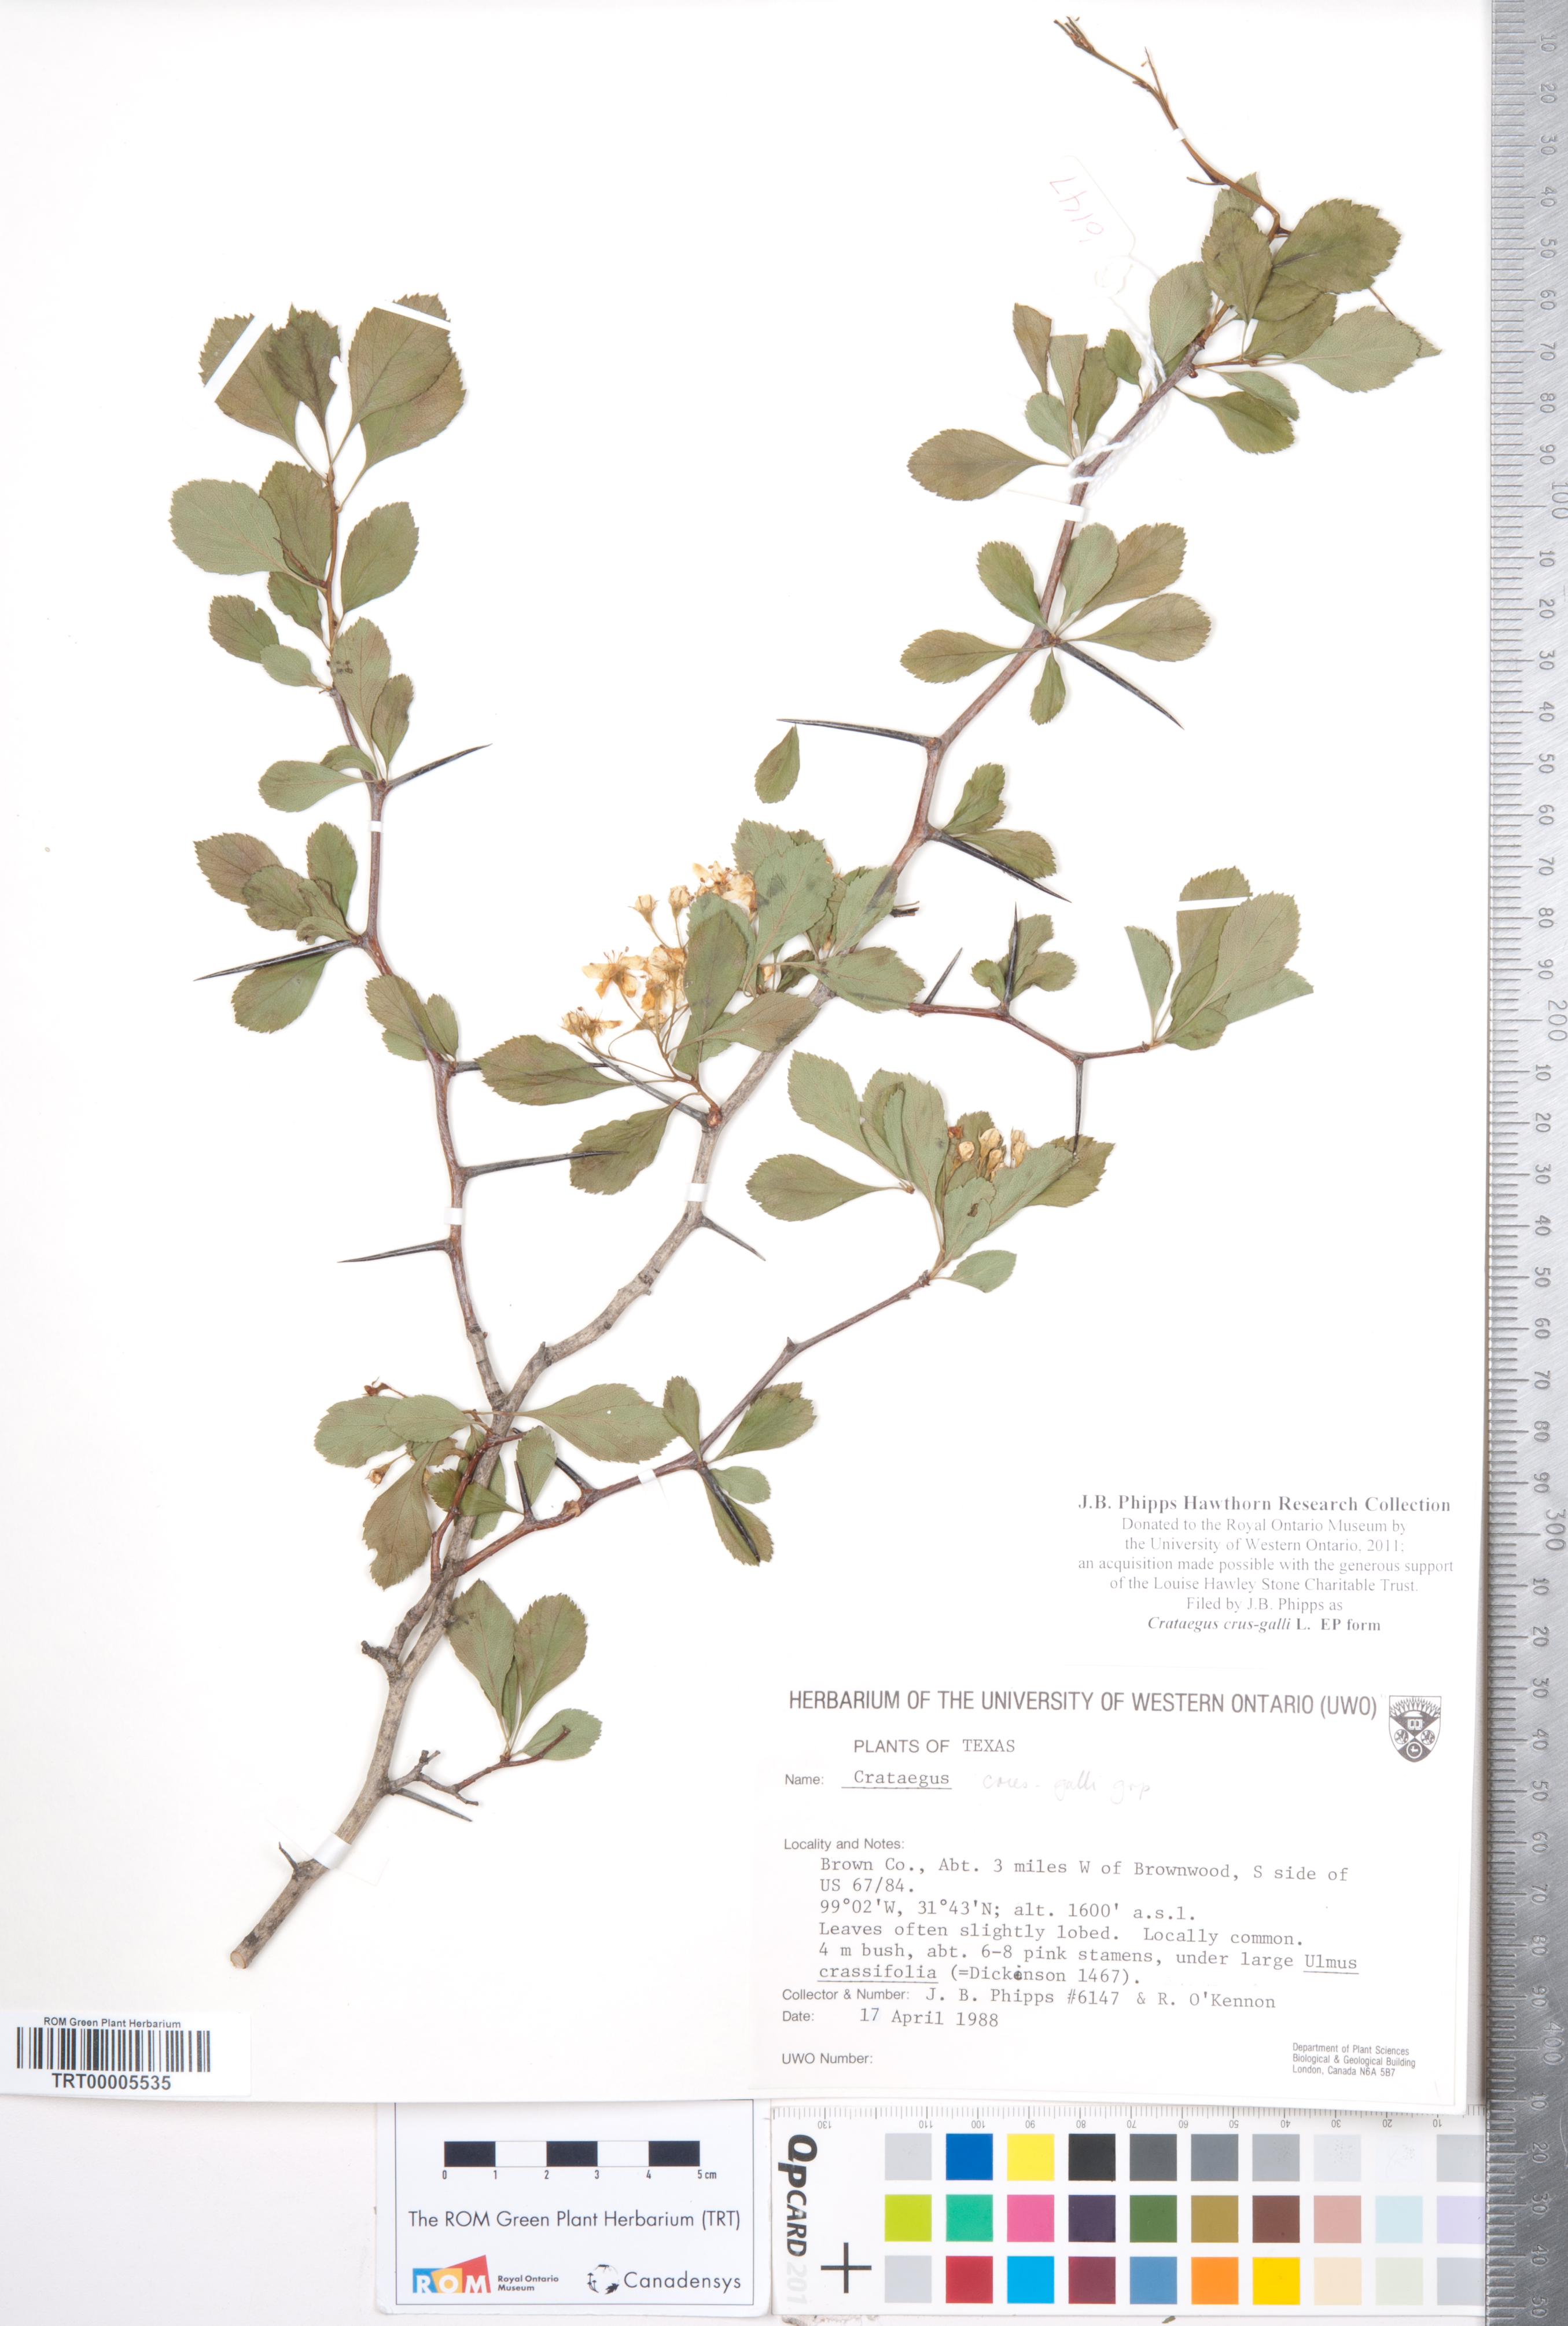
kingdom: Plantae
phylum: Tracheophyta
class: Magnoliopsida
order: Rosales
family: Rosaceae
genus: Crataegus
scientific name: Crataegus crus-galli
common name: Cockspurthorn
